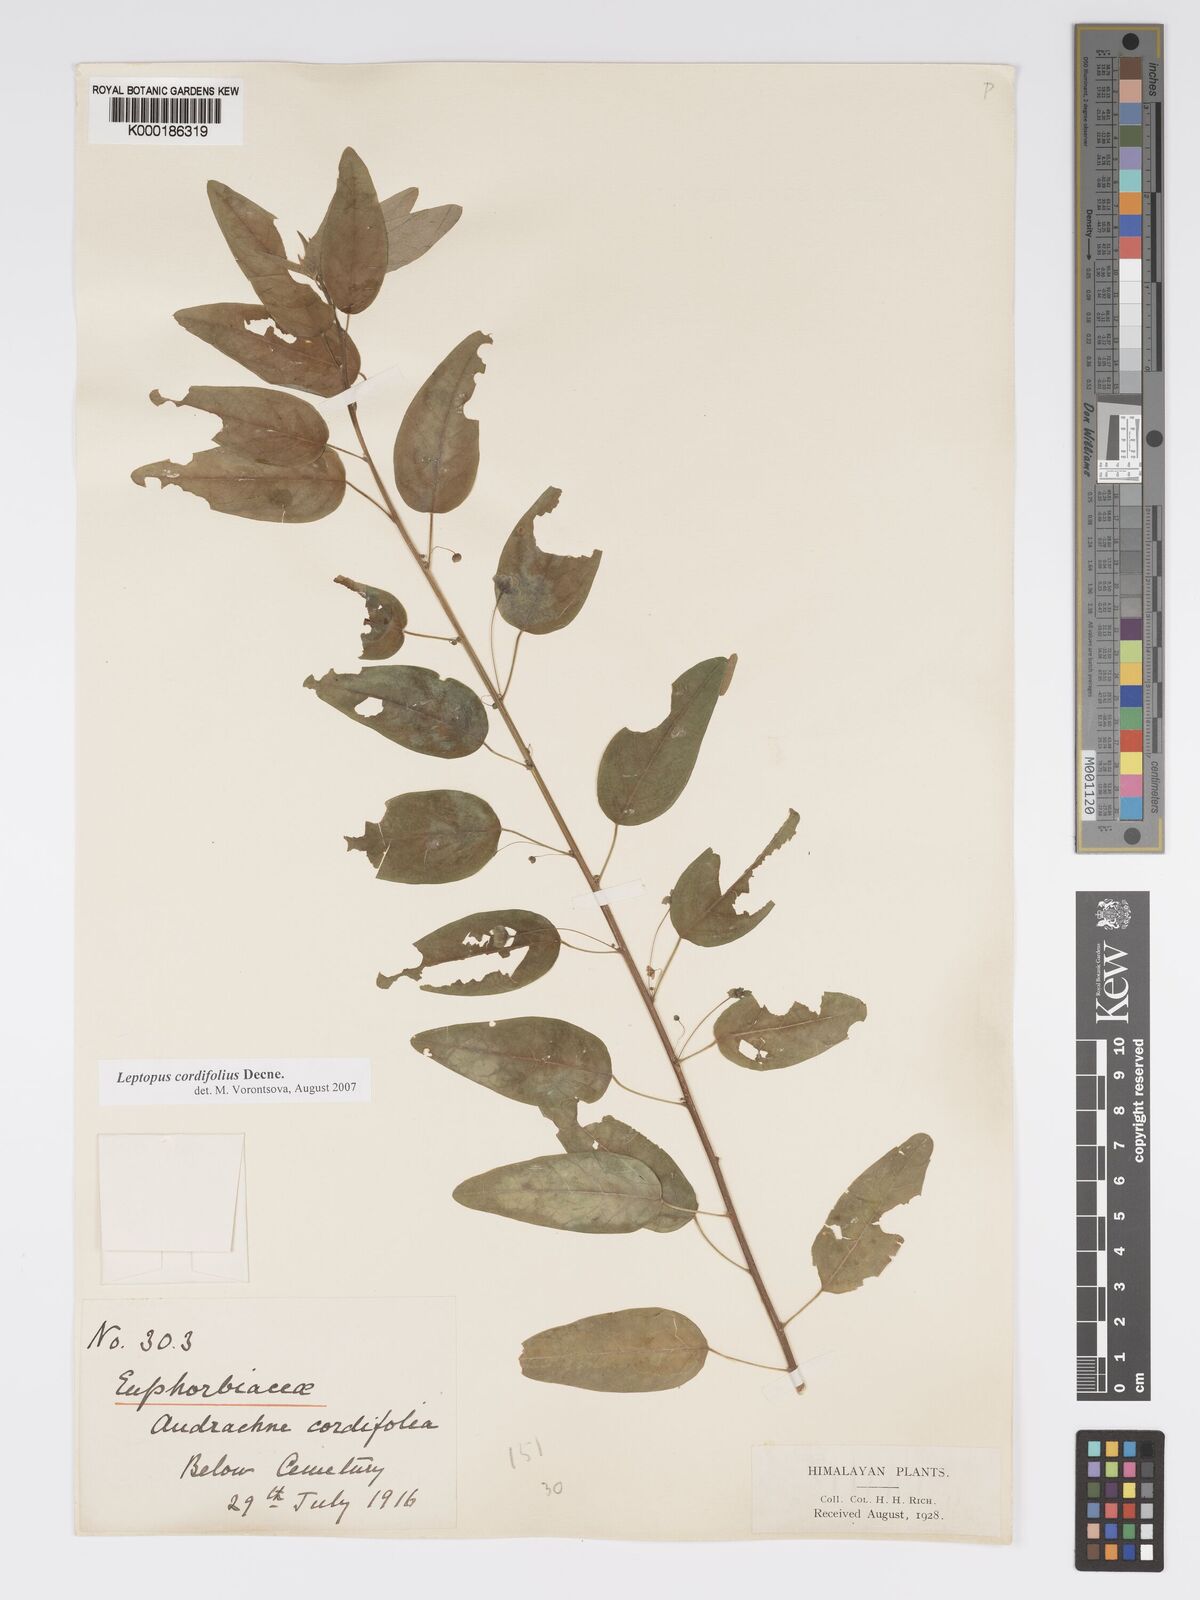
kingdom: Plantae
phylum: Tracheophyta
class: Magnoliopsida
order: Malpighiales
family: Phyllanthaceae
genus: Leptopus
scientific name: Leptopus cordifolius
